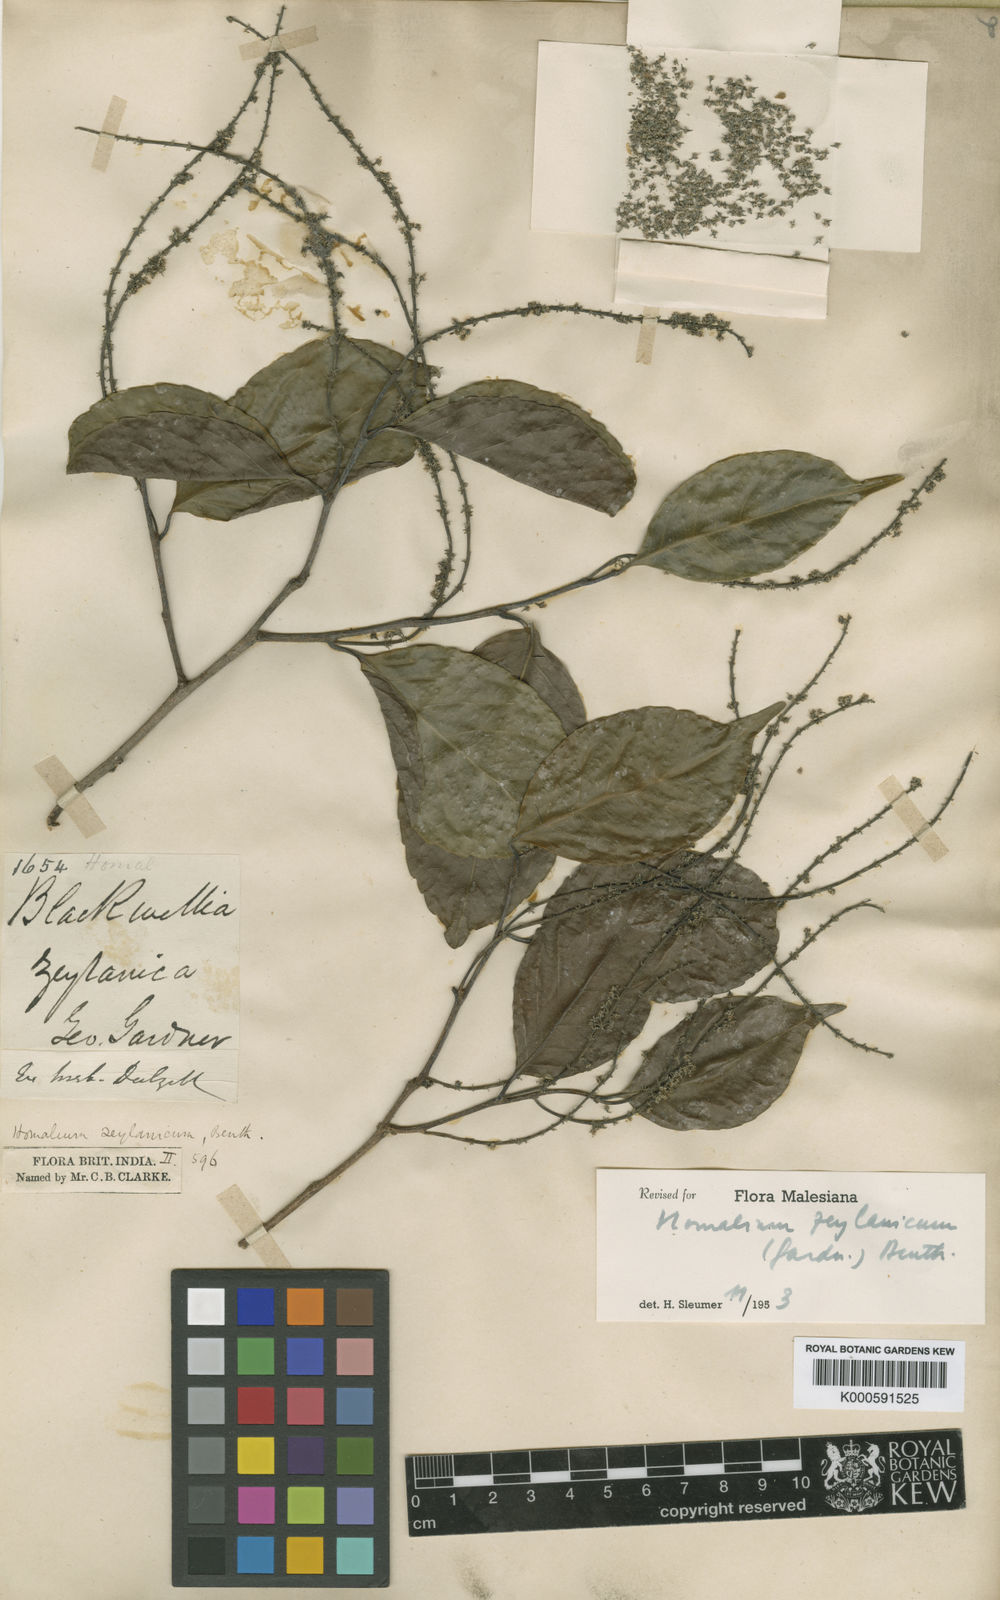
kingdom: Plantae
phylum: Tracheophyta
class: Magnoliopsida
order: Malpighiales
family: Salicaceae
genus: Homalium
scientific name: Homalium ceylanicum
